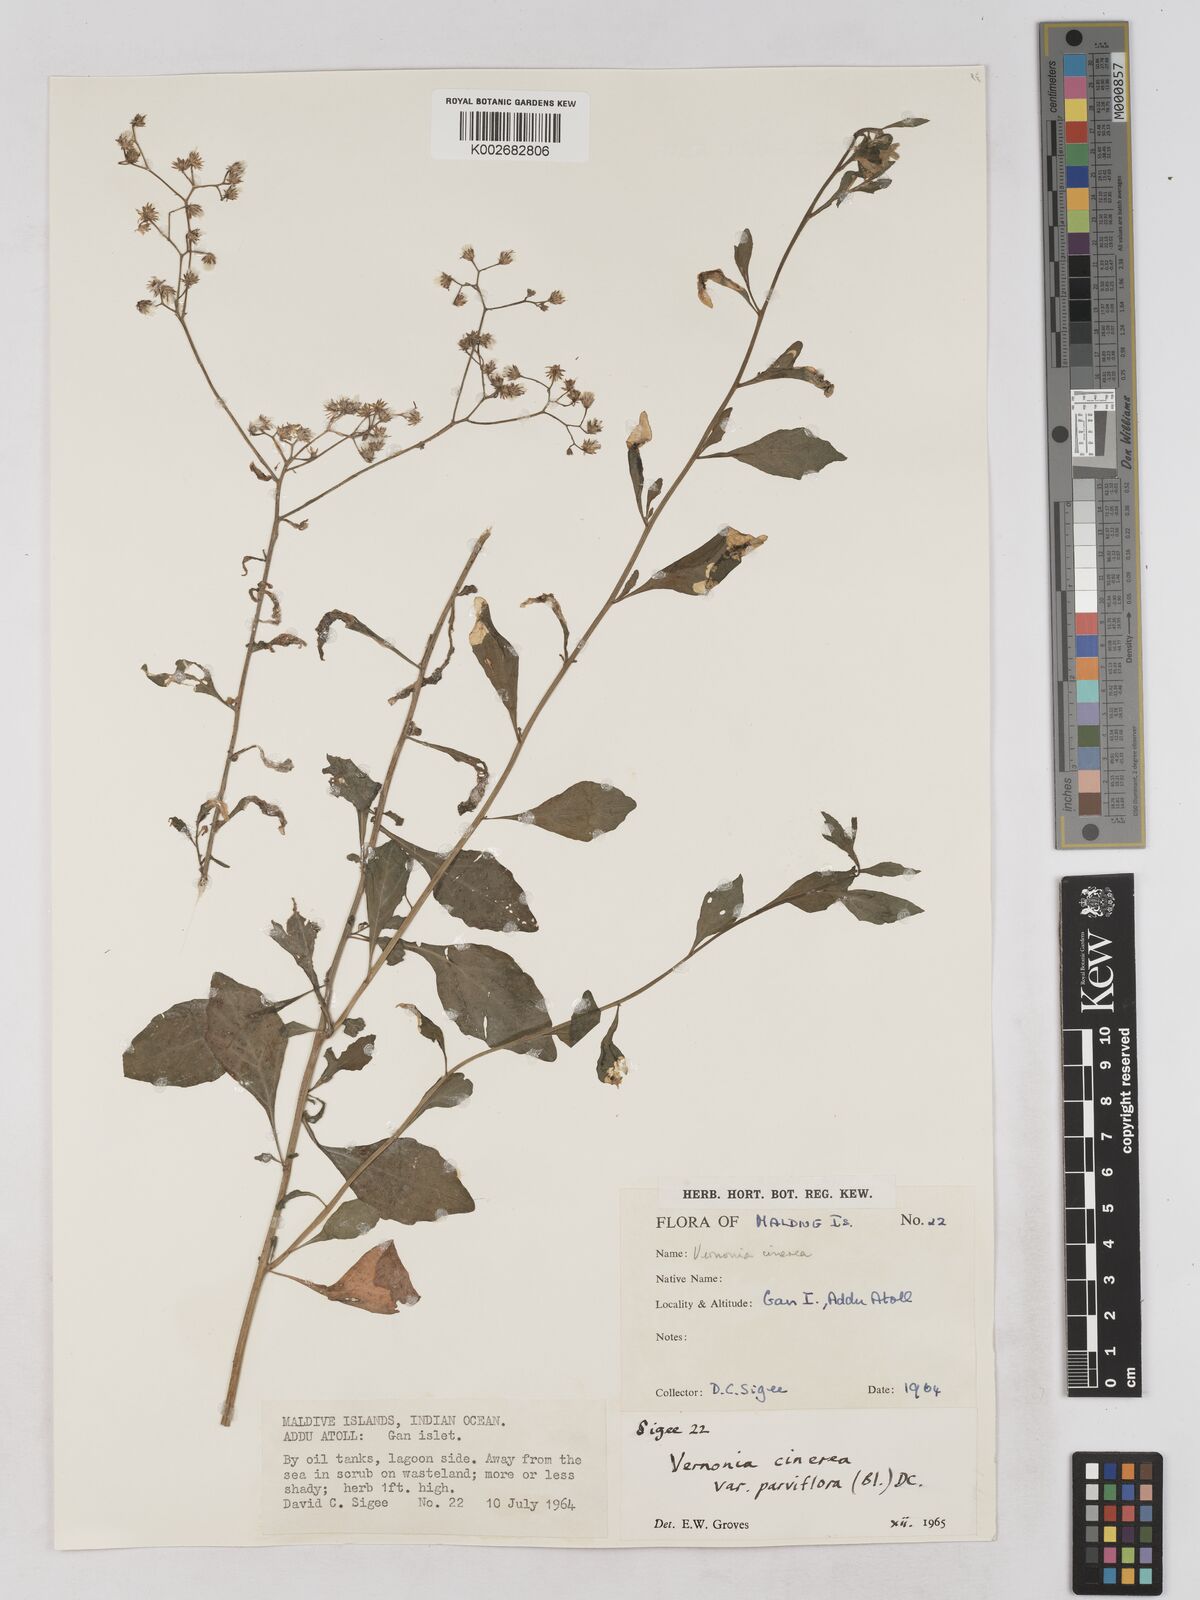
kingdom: Plantae
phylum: Tracheophyta
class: Magnoliopsida
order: Asterales
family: Asteraceae
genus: Cyanthillium
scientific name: Cyanthillium cinereum
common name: Little ironweed
